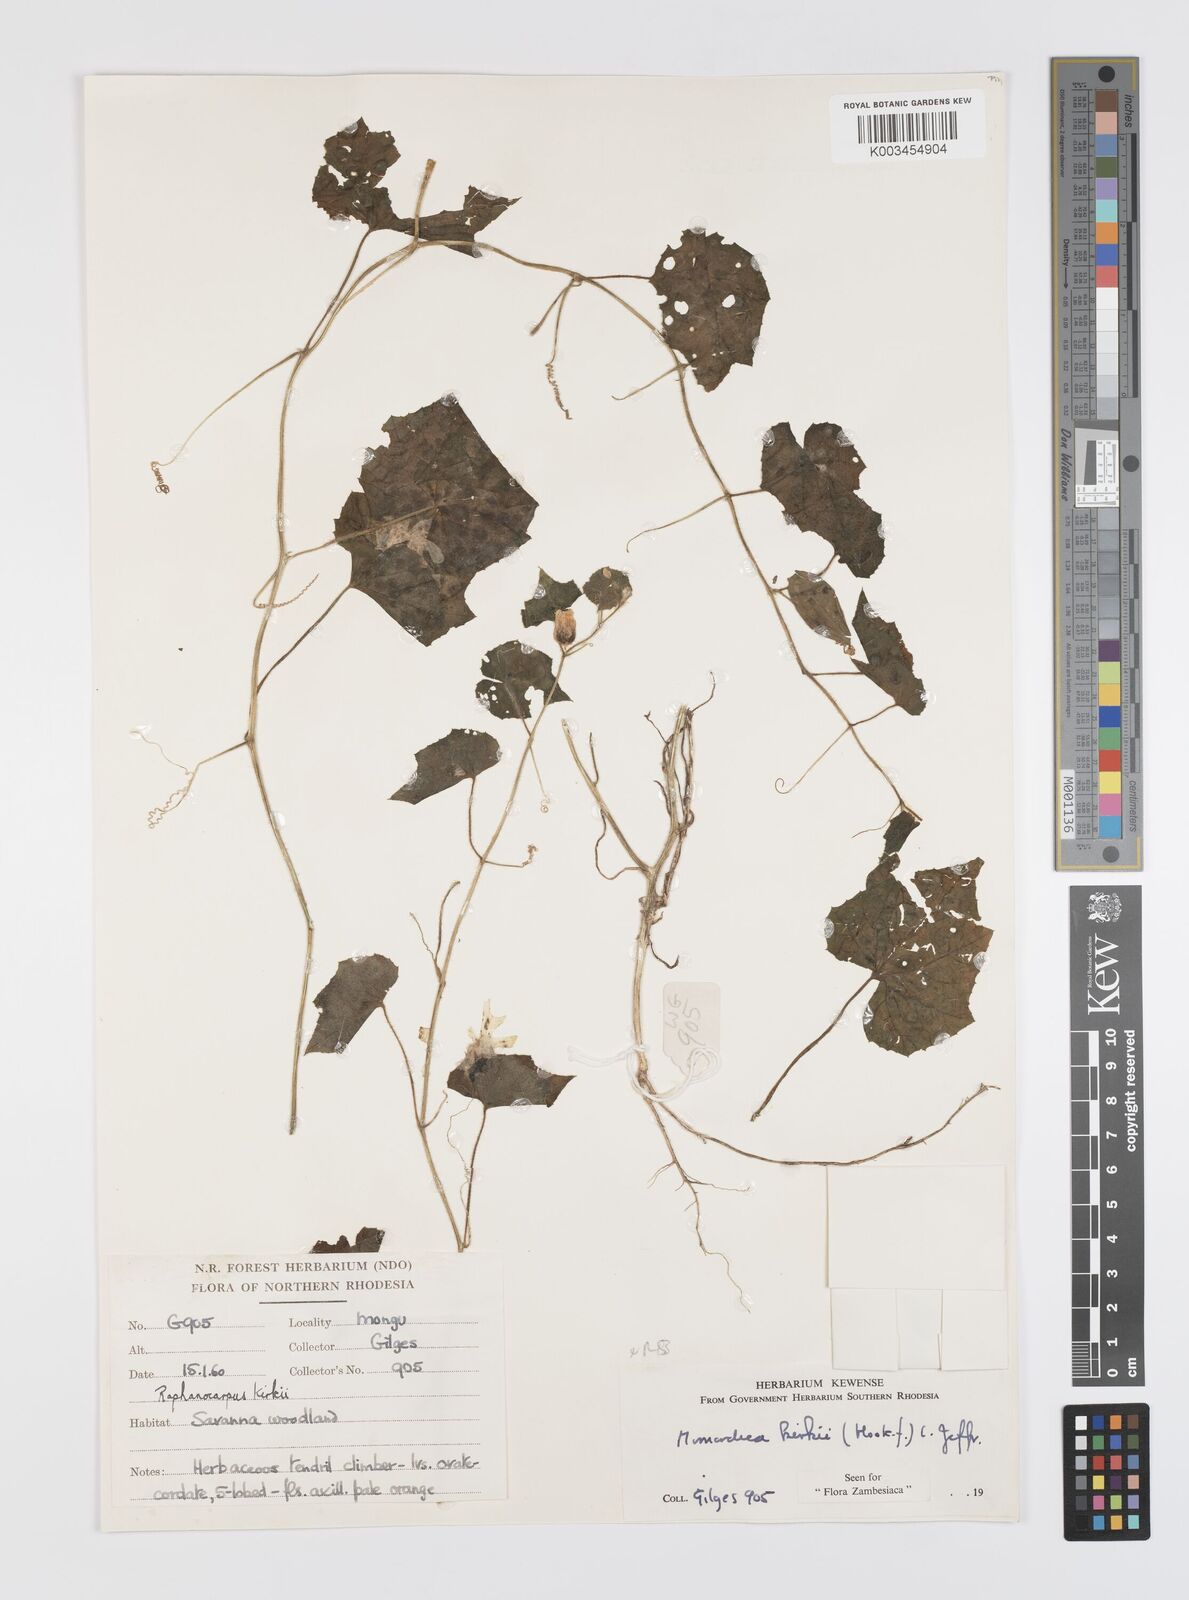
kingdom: Plantae
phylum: Tracheophyta
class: Magnoliopsida
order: Cucurbitales
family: Cucurbitaceae
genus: Momordica
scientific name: Momordica kirkii
